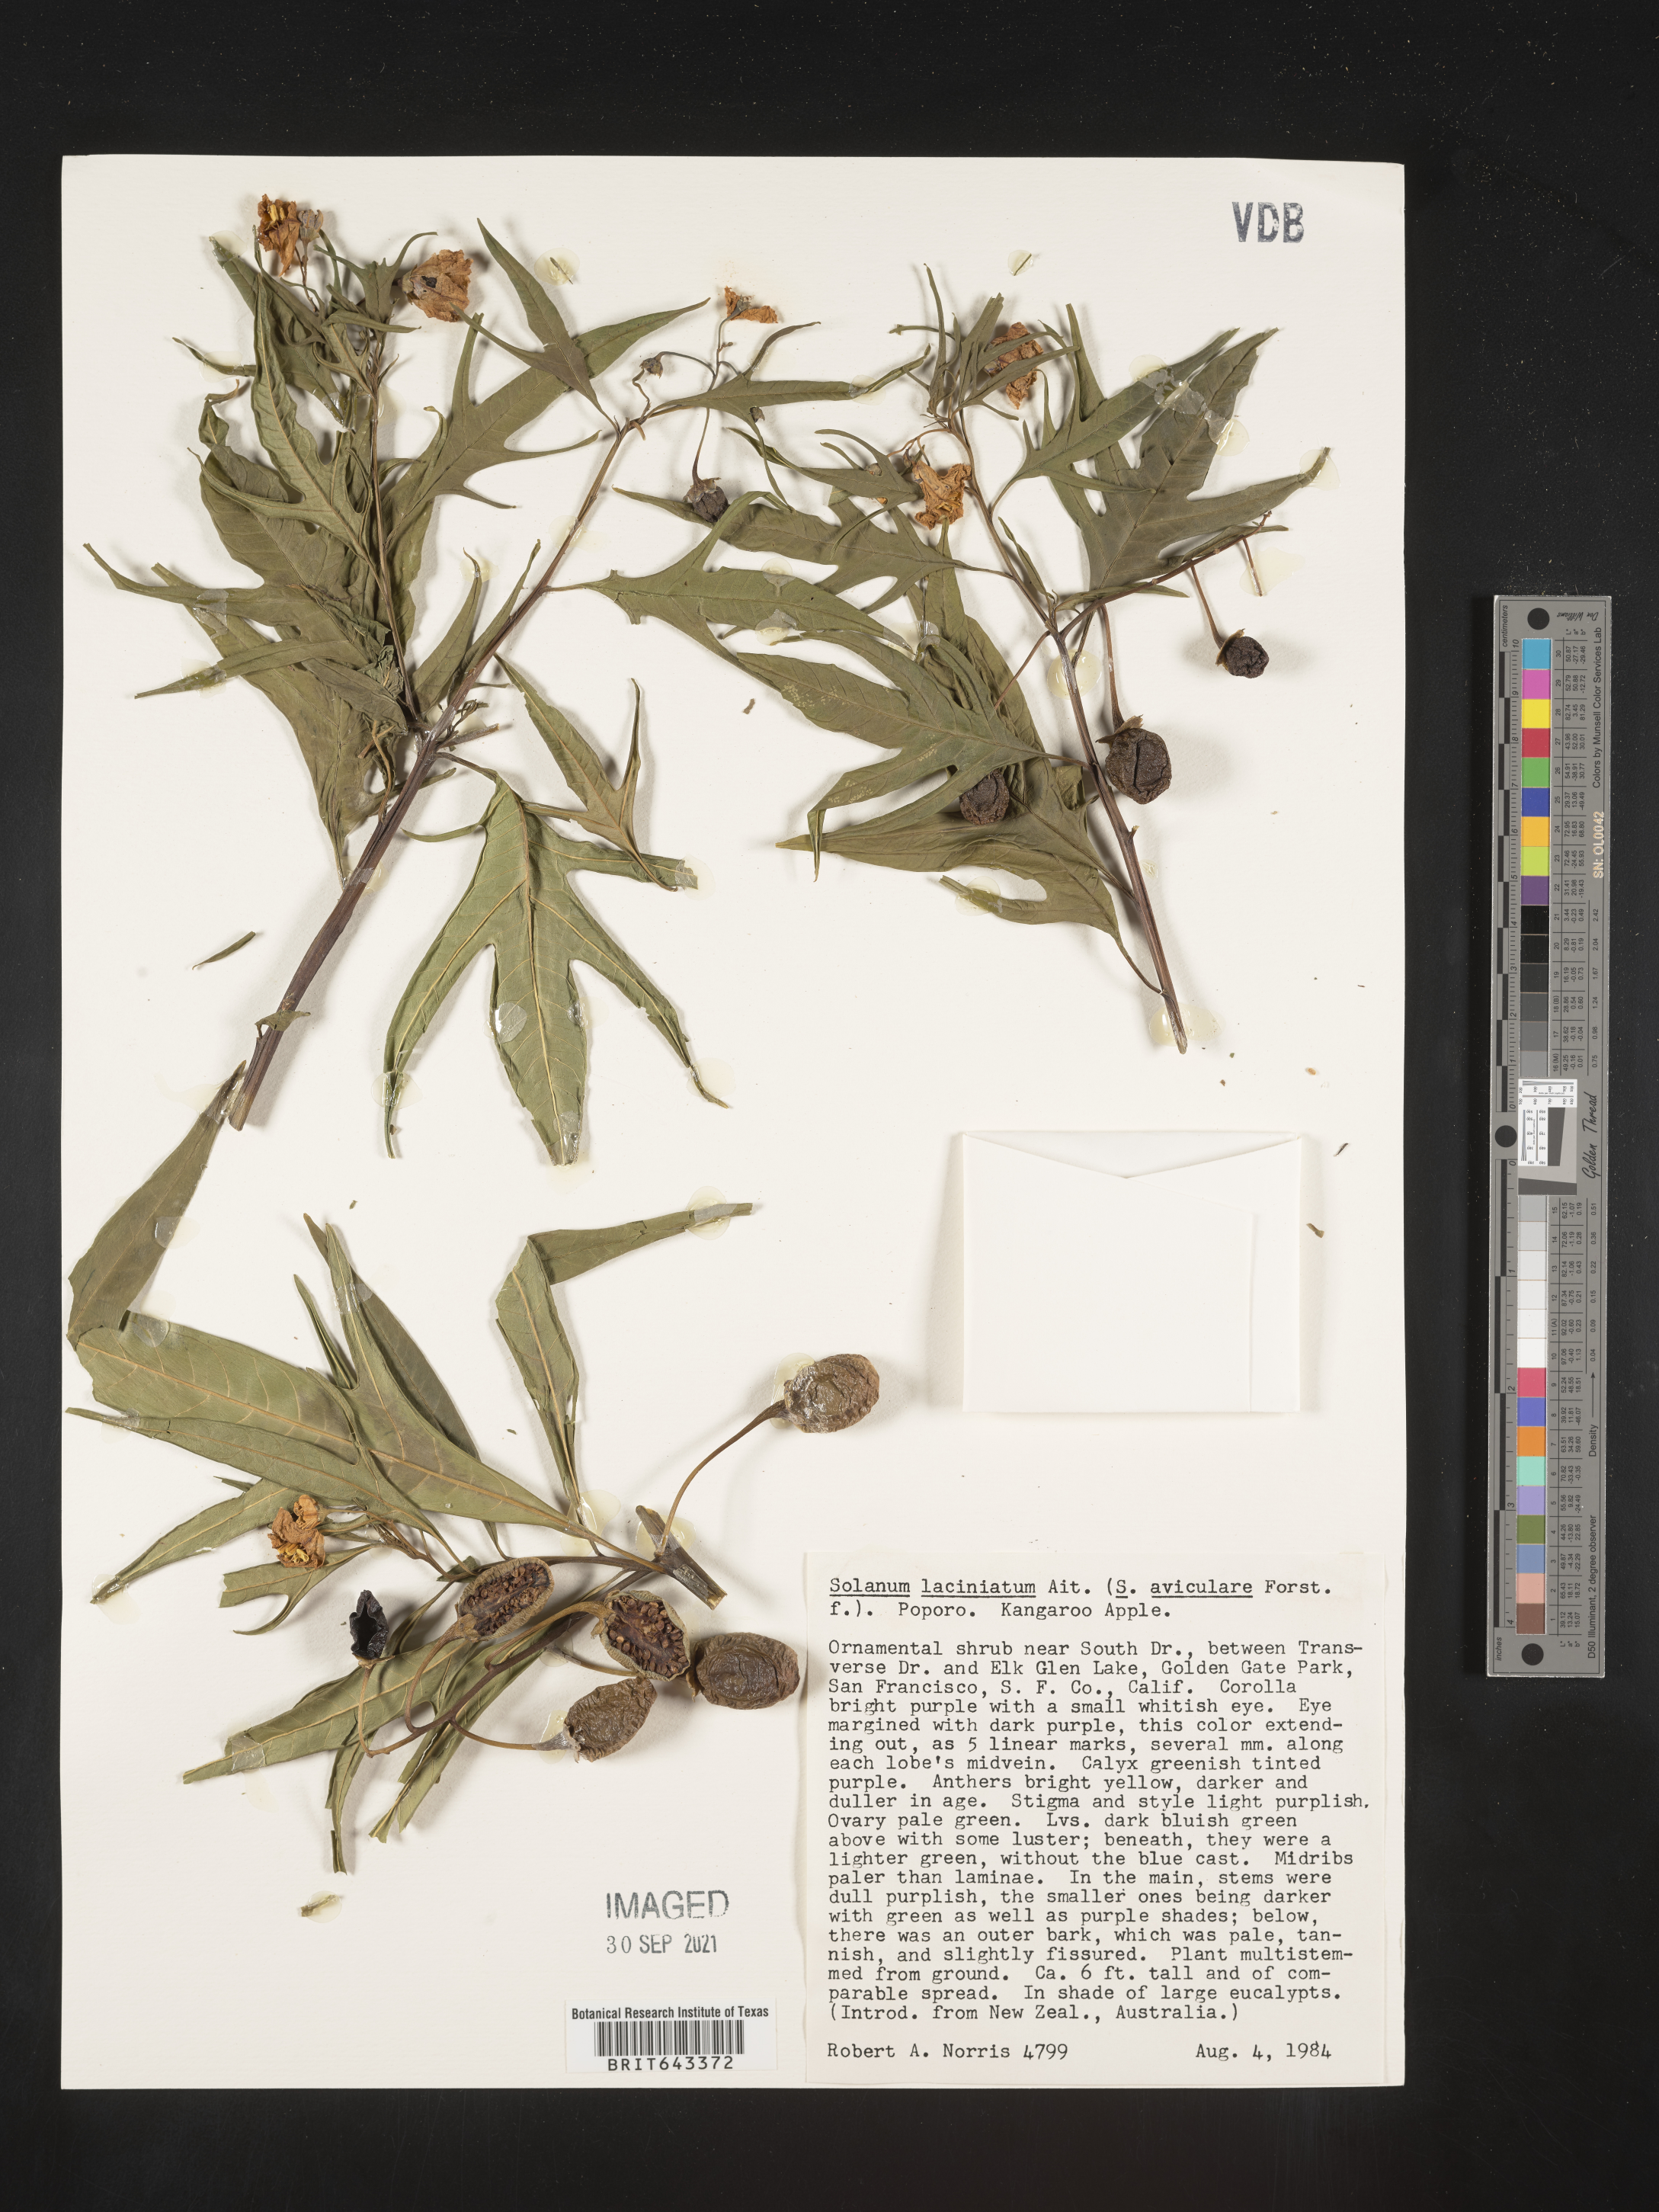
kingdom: Plantae
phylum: Tracheophyta
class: Magnoliopsida
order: Solanales
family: Solanaceae
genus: Solanum
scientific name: Solanum
